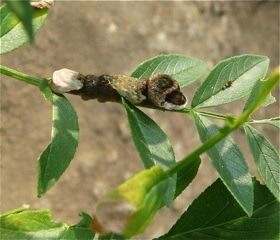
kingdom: Animalia
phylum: Arthropoda
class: Insecta
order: Lepidoptera
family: Papilionidae
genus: Papilio
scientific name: Papilio cresphontes
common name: Eastern Giant Swallowtail
